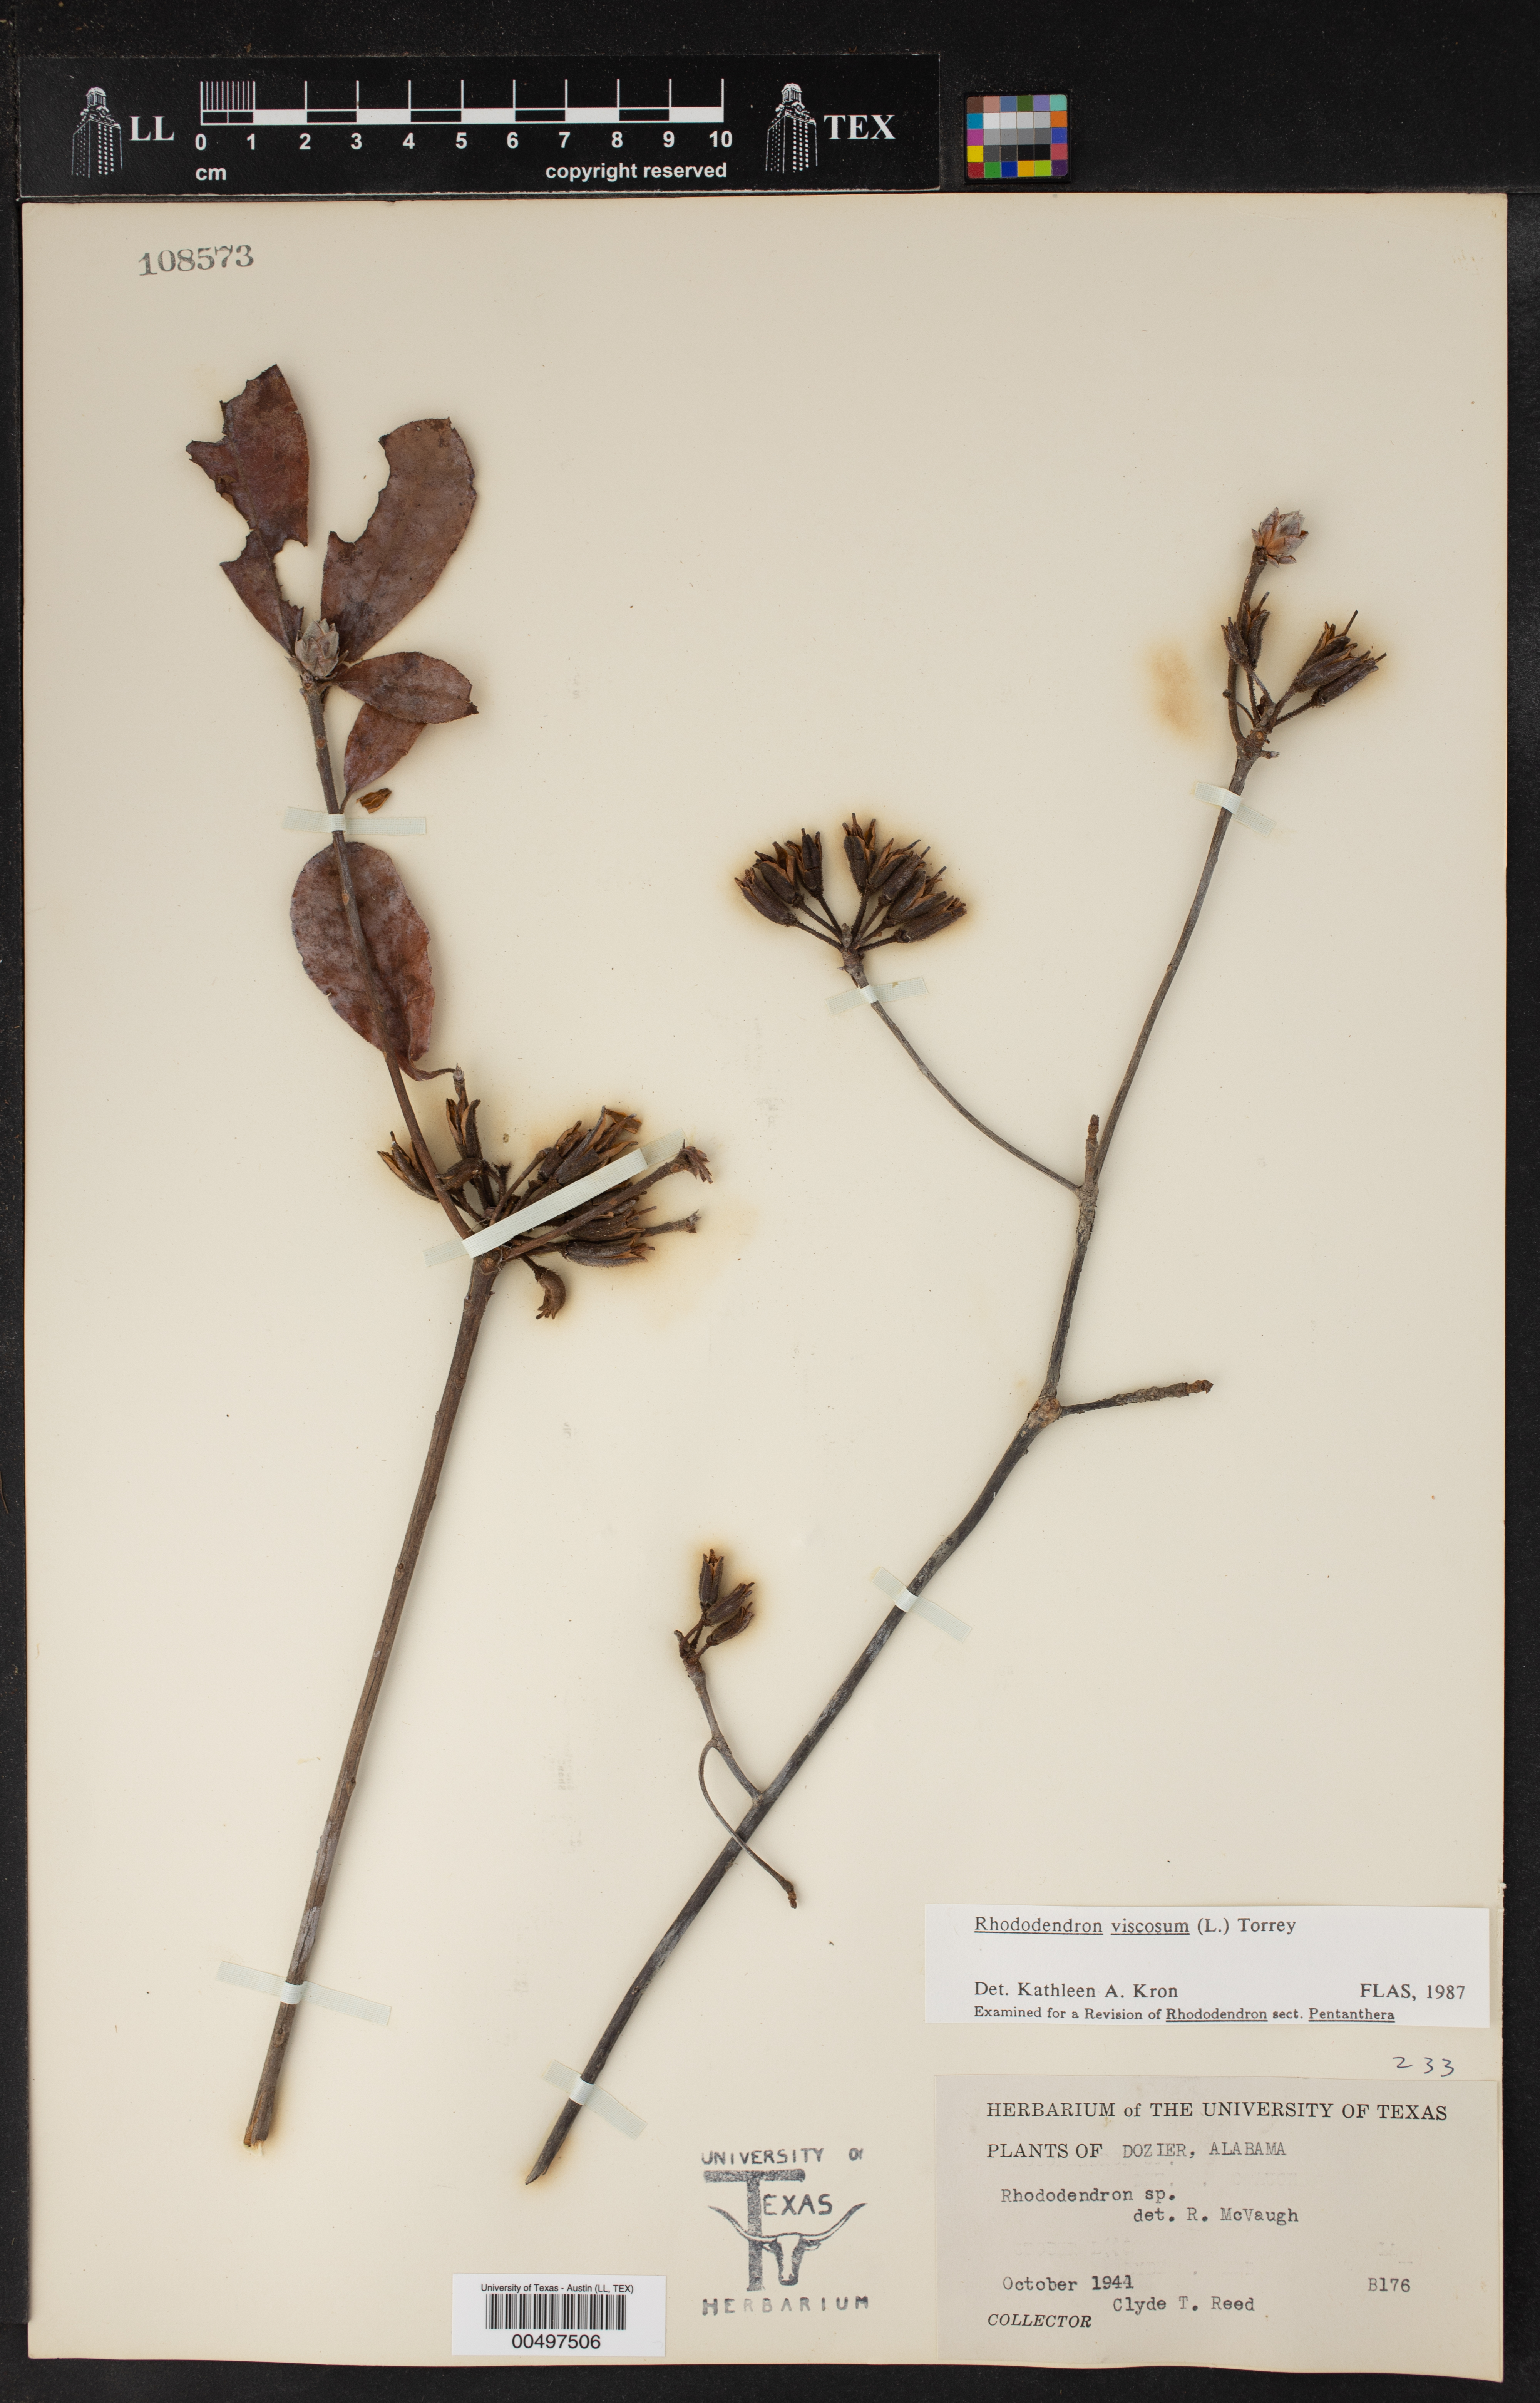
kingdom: Plantae
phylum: Tracheophyta
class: Magnoliopsida
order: Ericales
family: Ericaceae
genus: Rhododendron
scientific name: Rhododendron viscosum
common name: Clammy azalea
